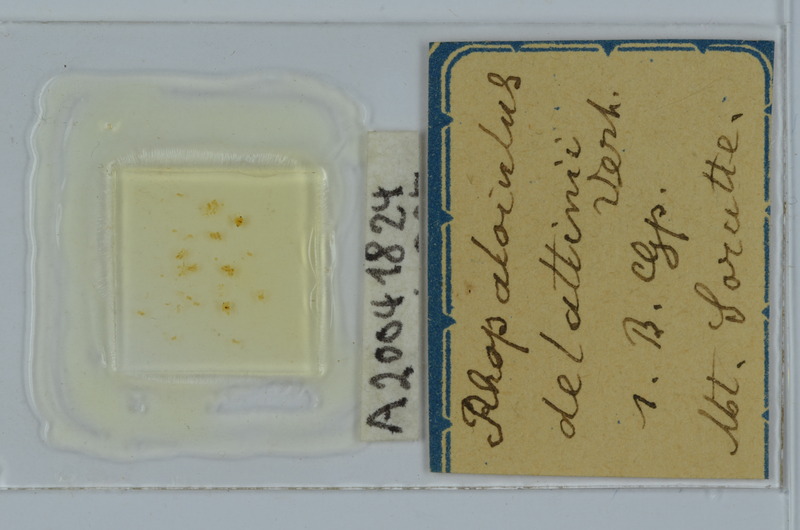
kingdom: Animalia
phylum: Arthropoda
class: Diplopoda
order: Julida
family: Rhopaloiulidae
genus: Rhopaloiulus
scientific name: Rhopaloiulus cameratanus
